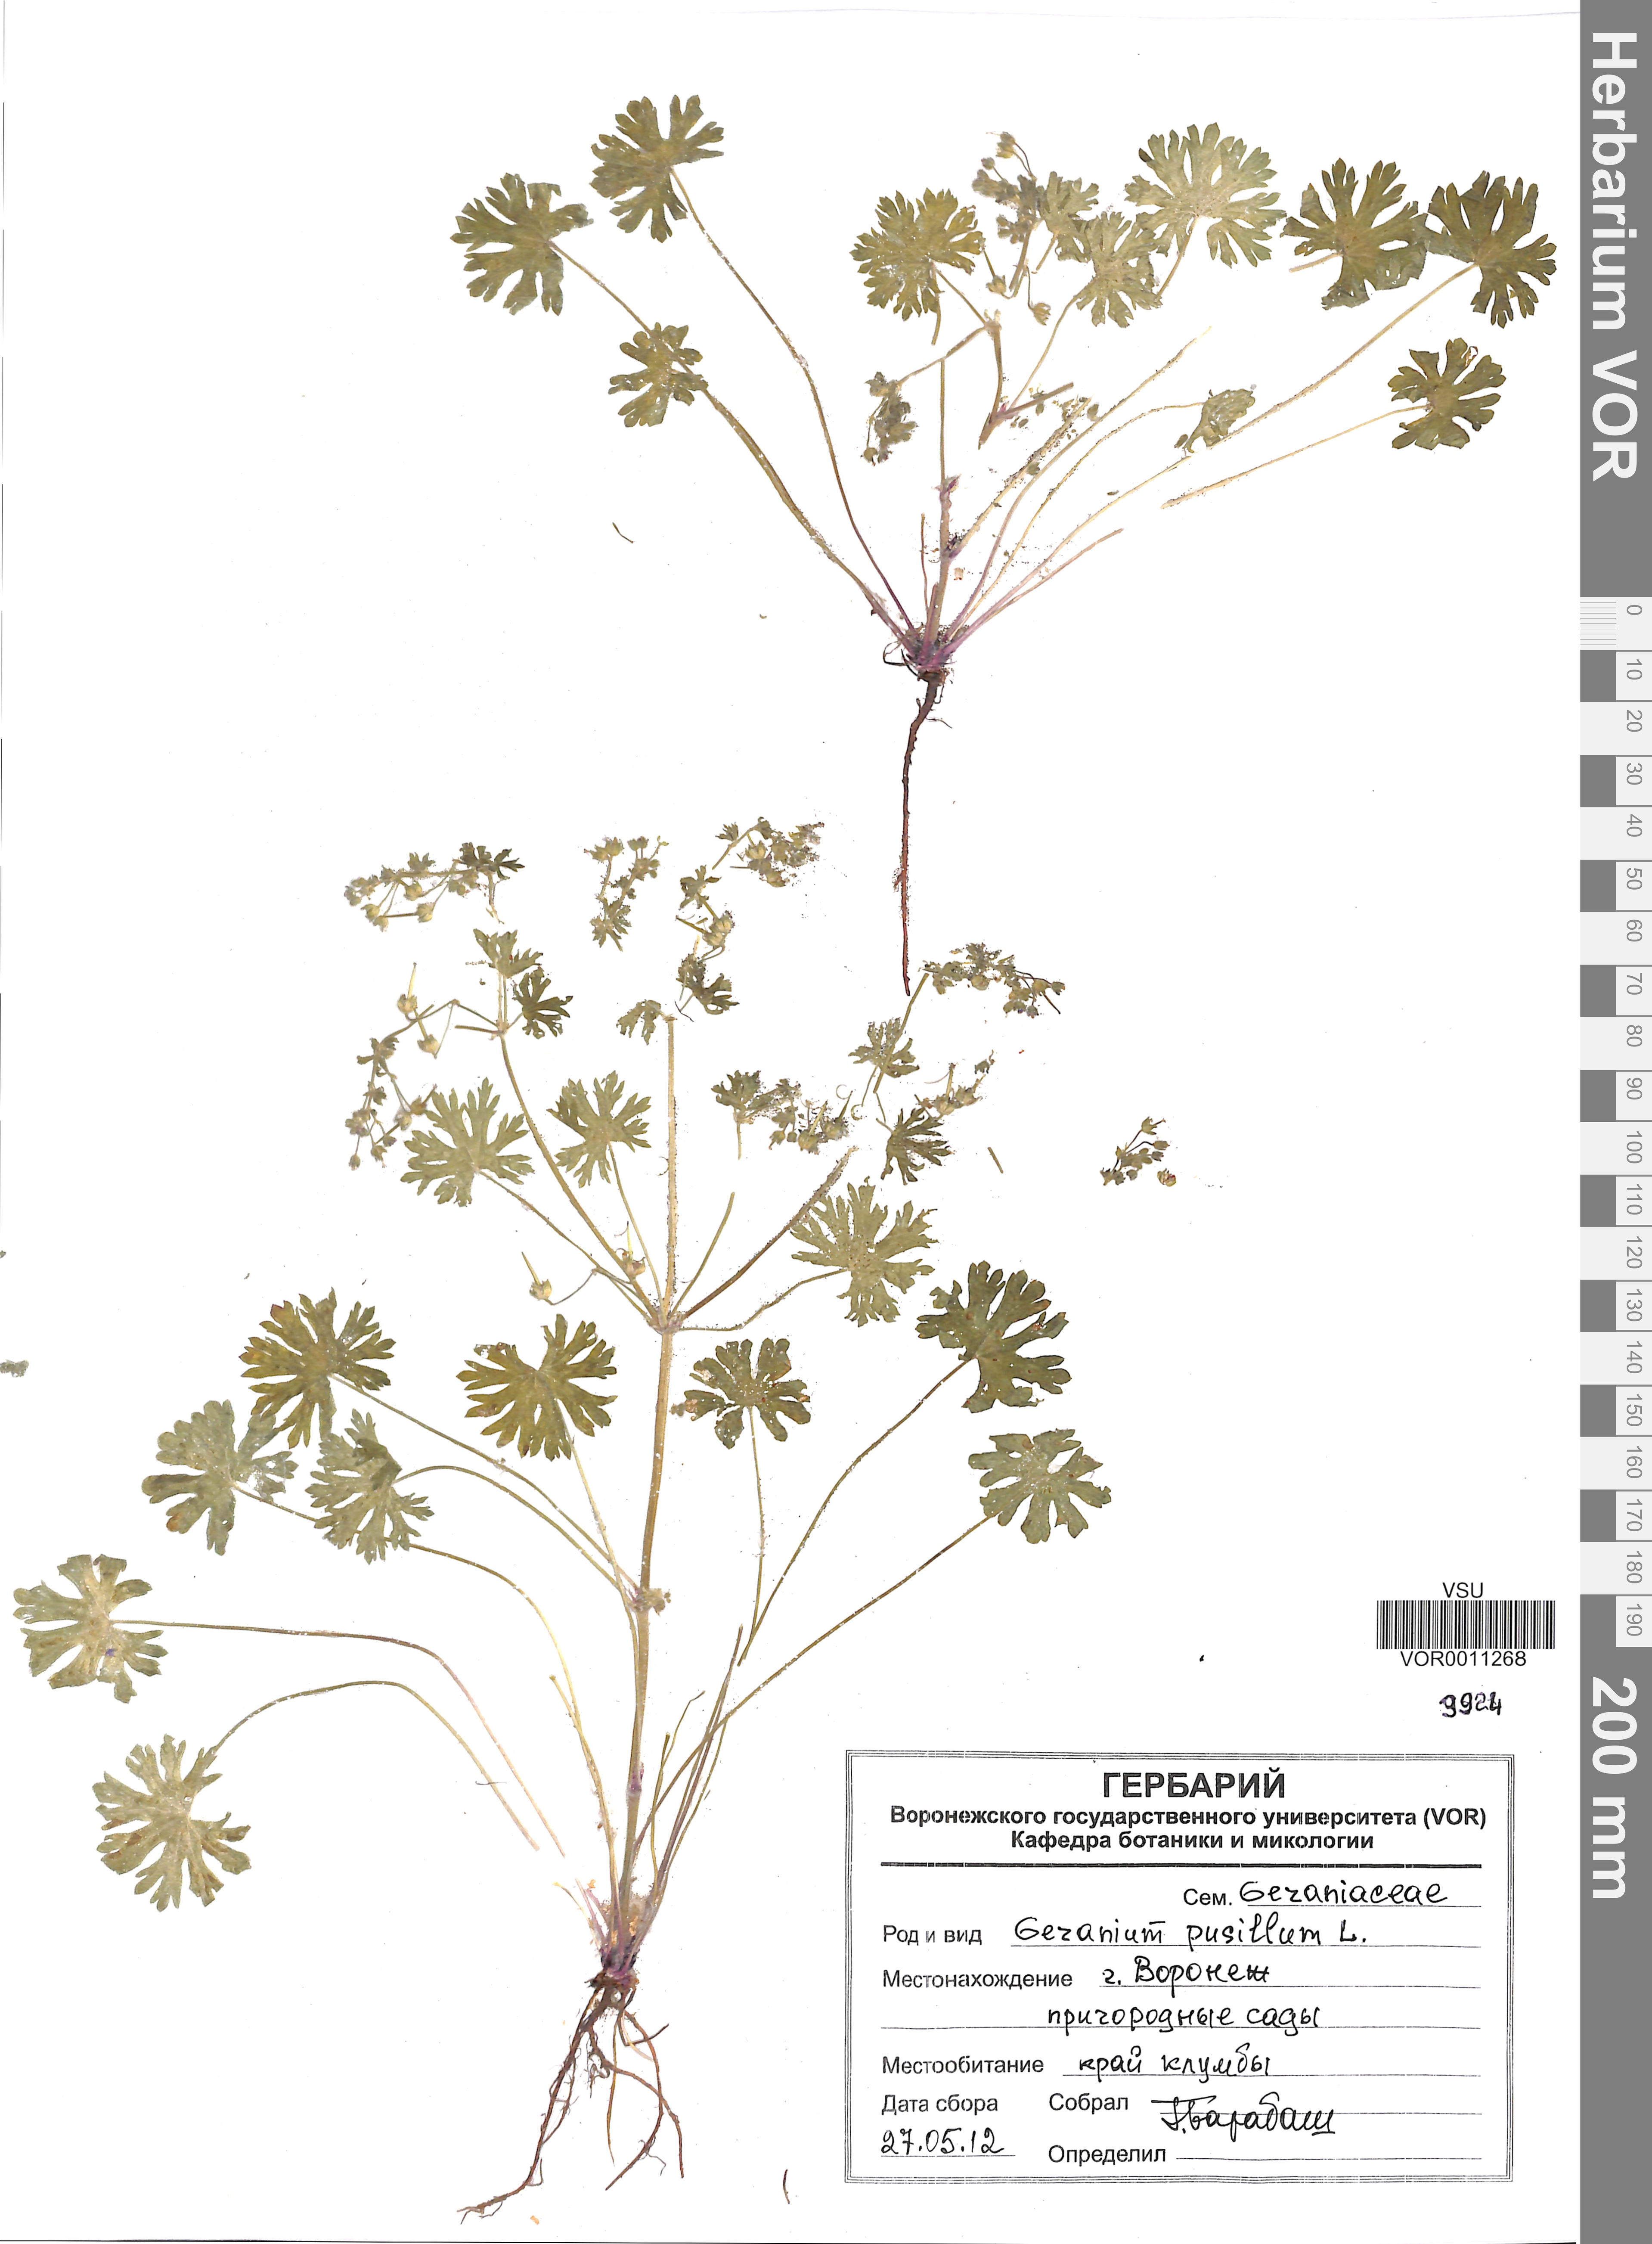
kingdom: Plantae
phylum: Tracheophyta
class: Magnoliopsida
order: Geraniales
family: Geraniaceae
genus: Geranium
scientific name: Geranium pusillum
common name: Small geranium
